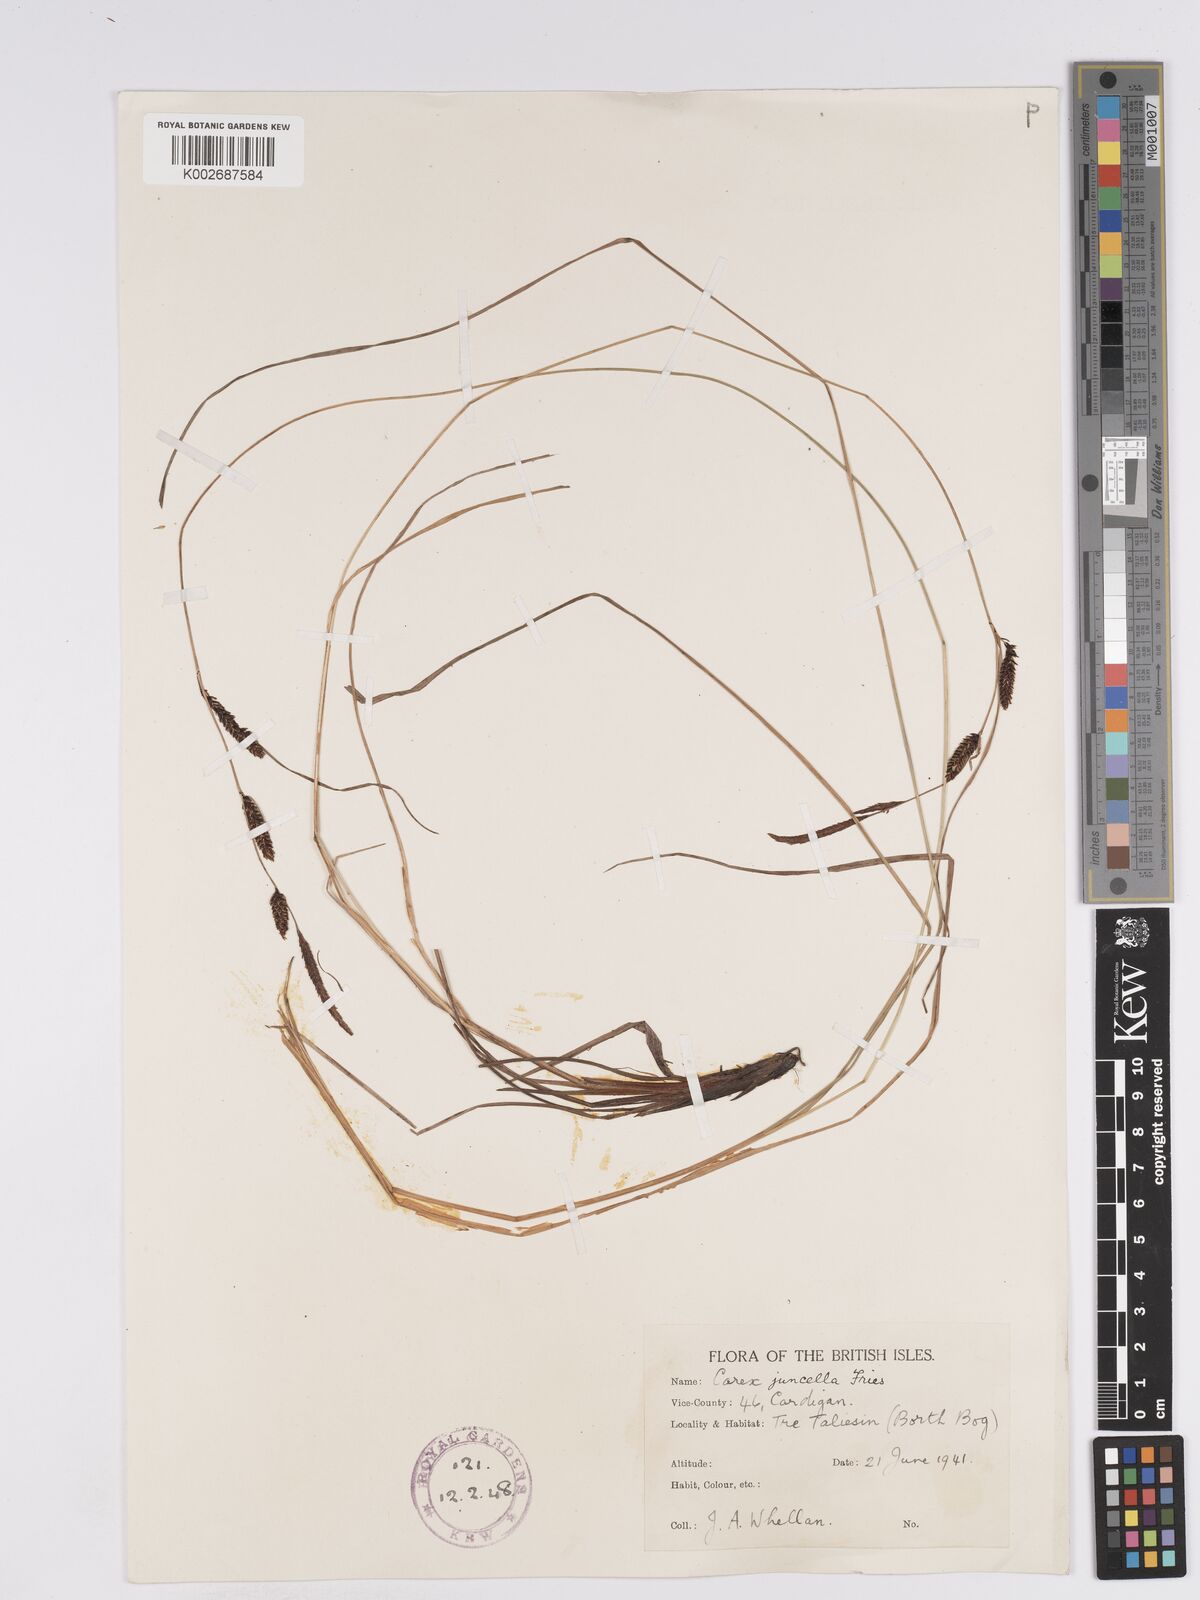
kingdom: Plantae
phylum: Tracheophyta
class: Liliopsida
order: Poales
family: Cyperaceae
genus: Carex
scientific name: Carex nigra
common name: Common sedge
